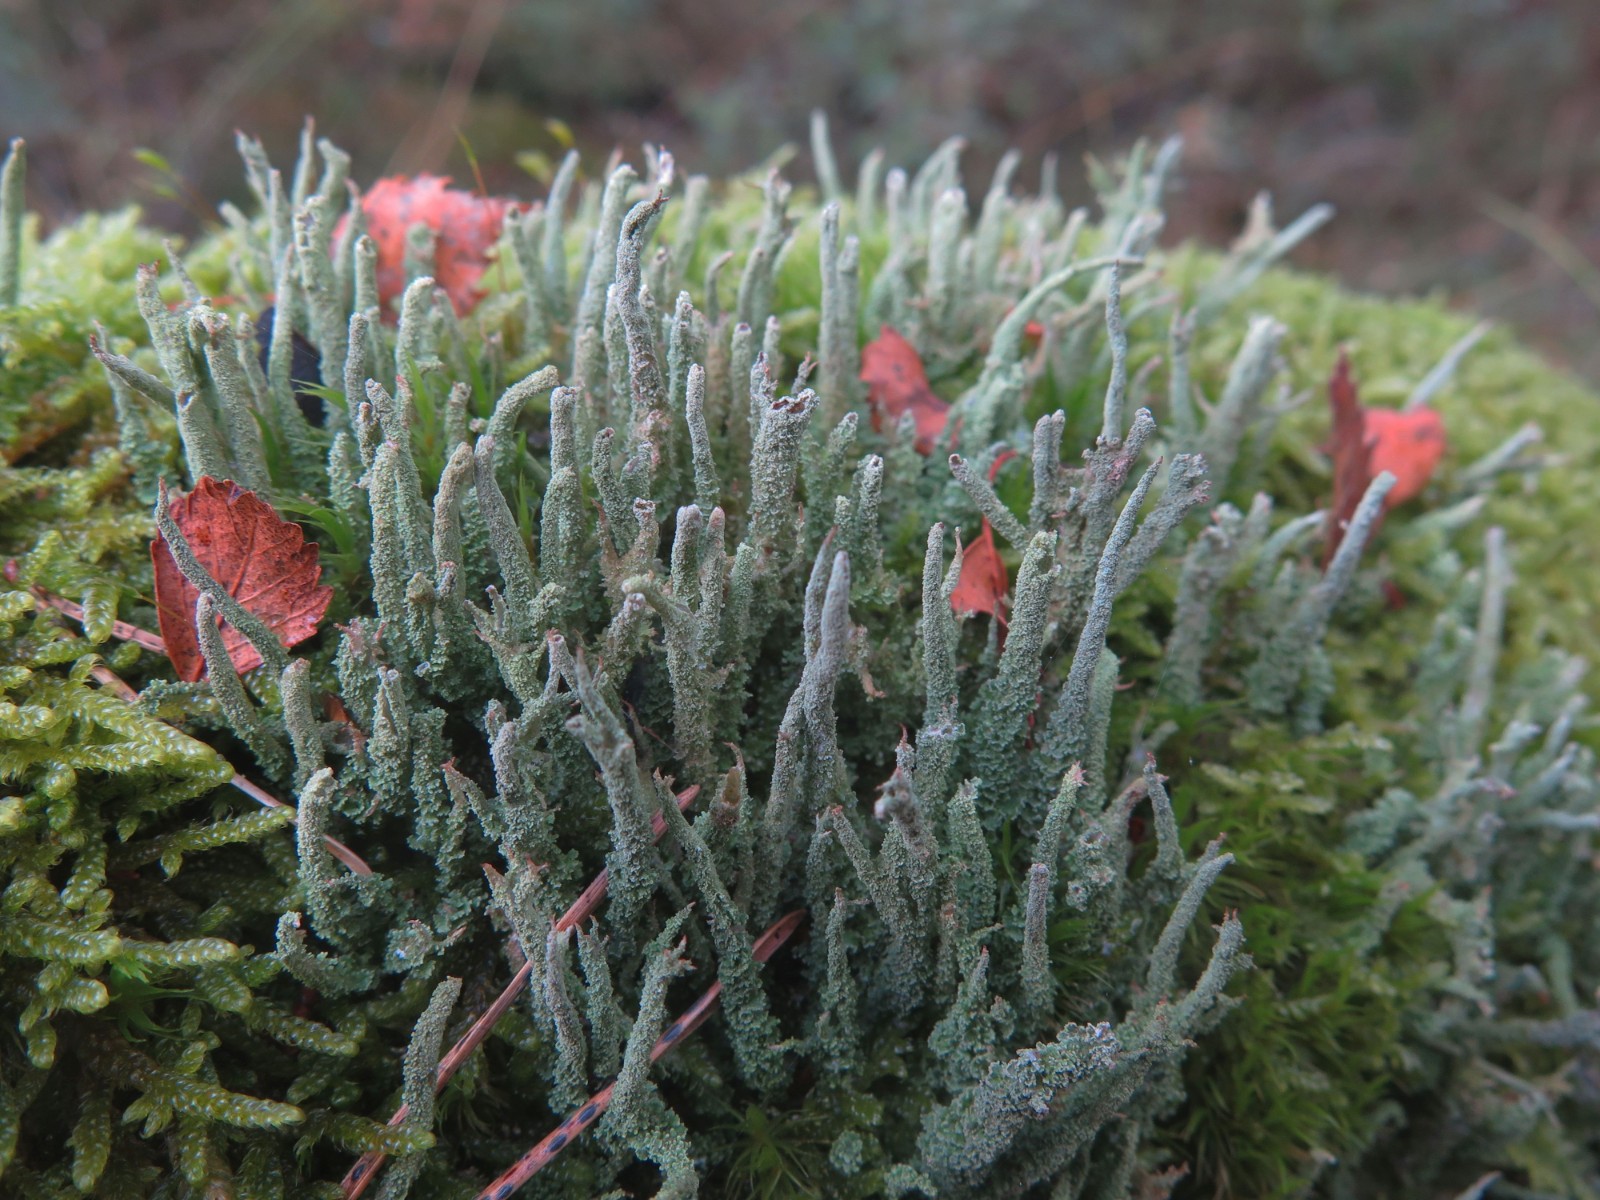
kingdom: Fungi
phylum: Ascomycota
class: Lecanoromycetes
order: Lecanorales
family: Cladoniaceae
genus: Cladonia
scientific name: Cladonia glauca
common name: grågrøn bægerlav
